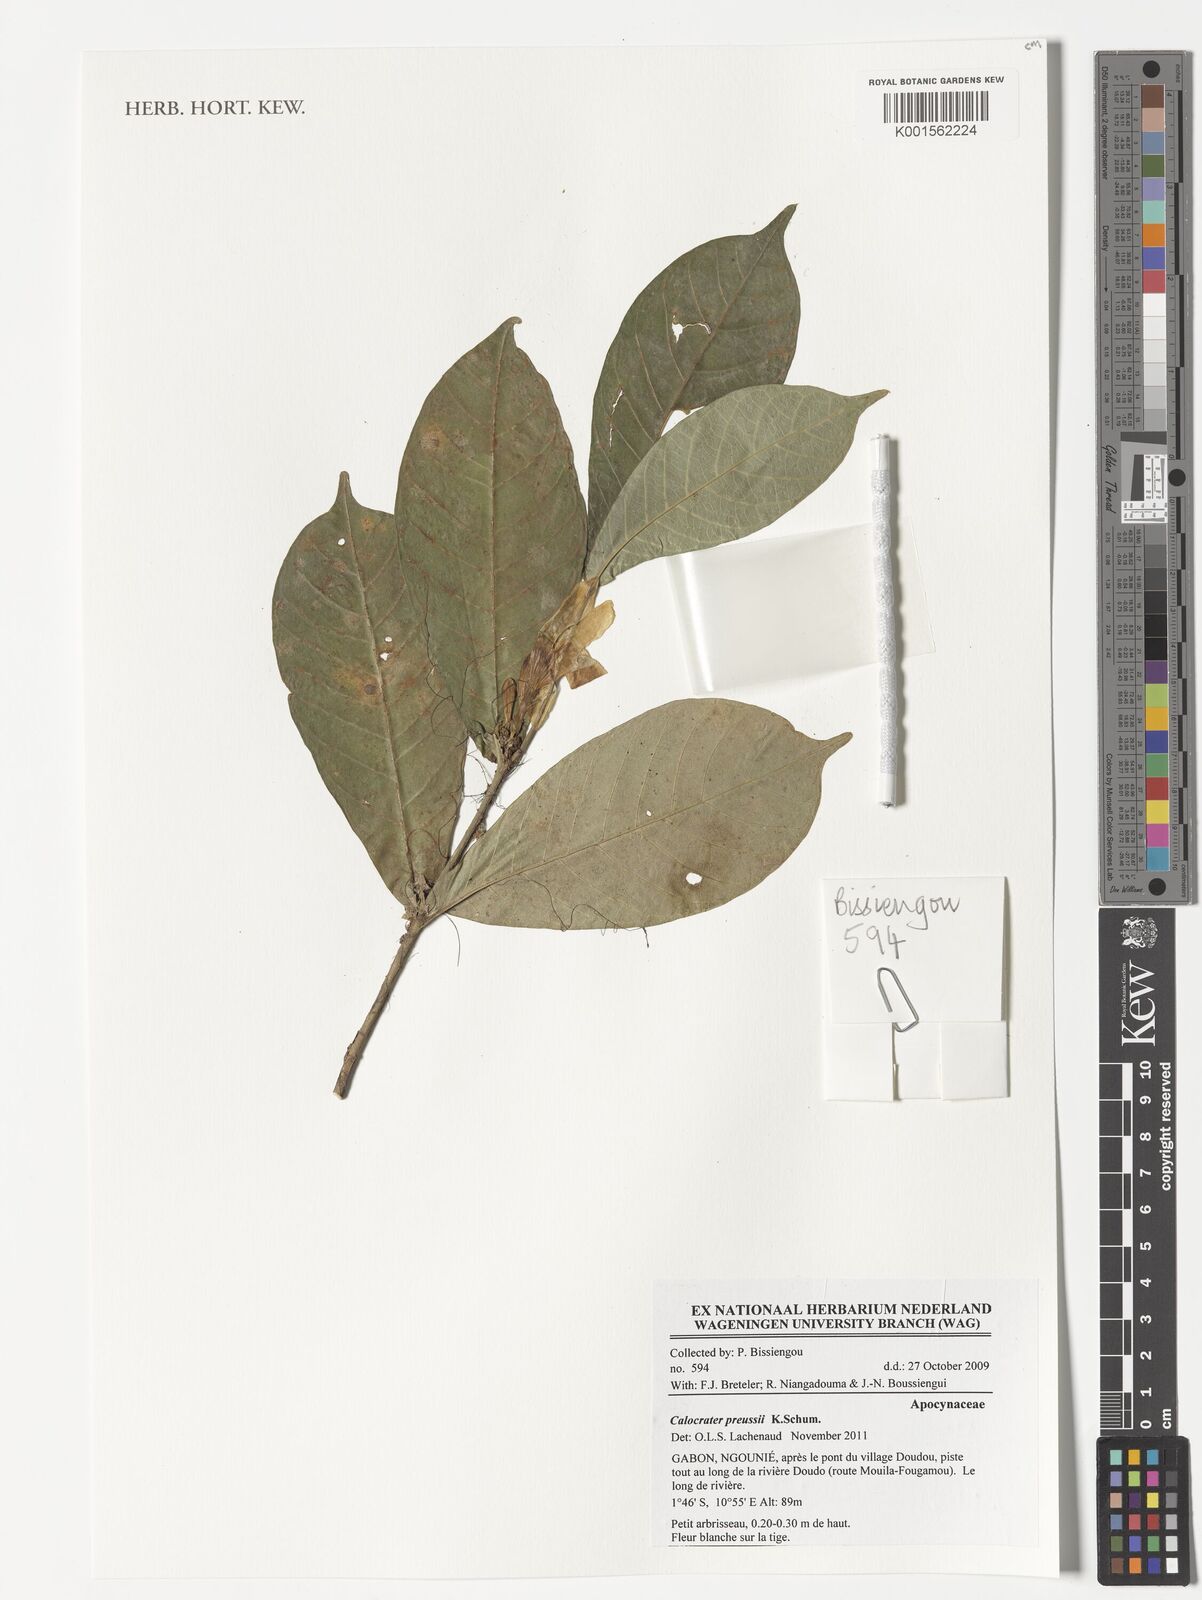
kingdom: Plantae
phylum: Tracheophyta
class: Magnoliopsida
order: Gentianales
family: Apocynaceae
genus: Calocrater
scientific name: Calocrater preussii
